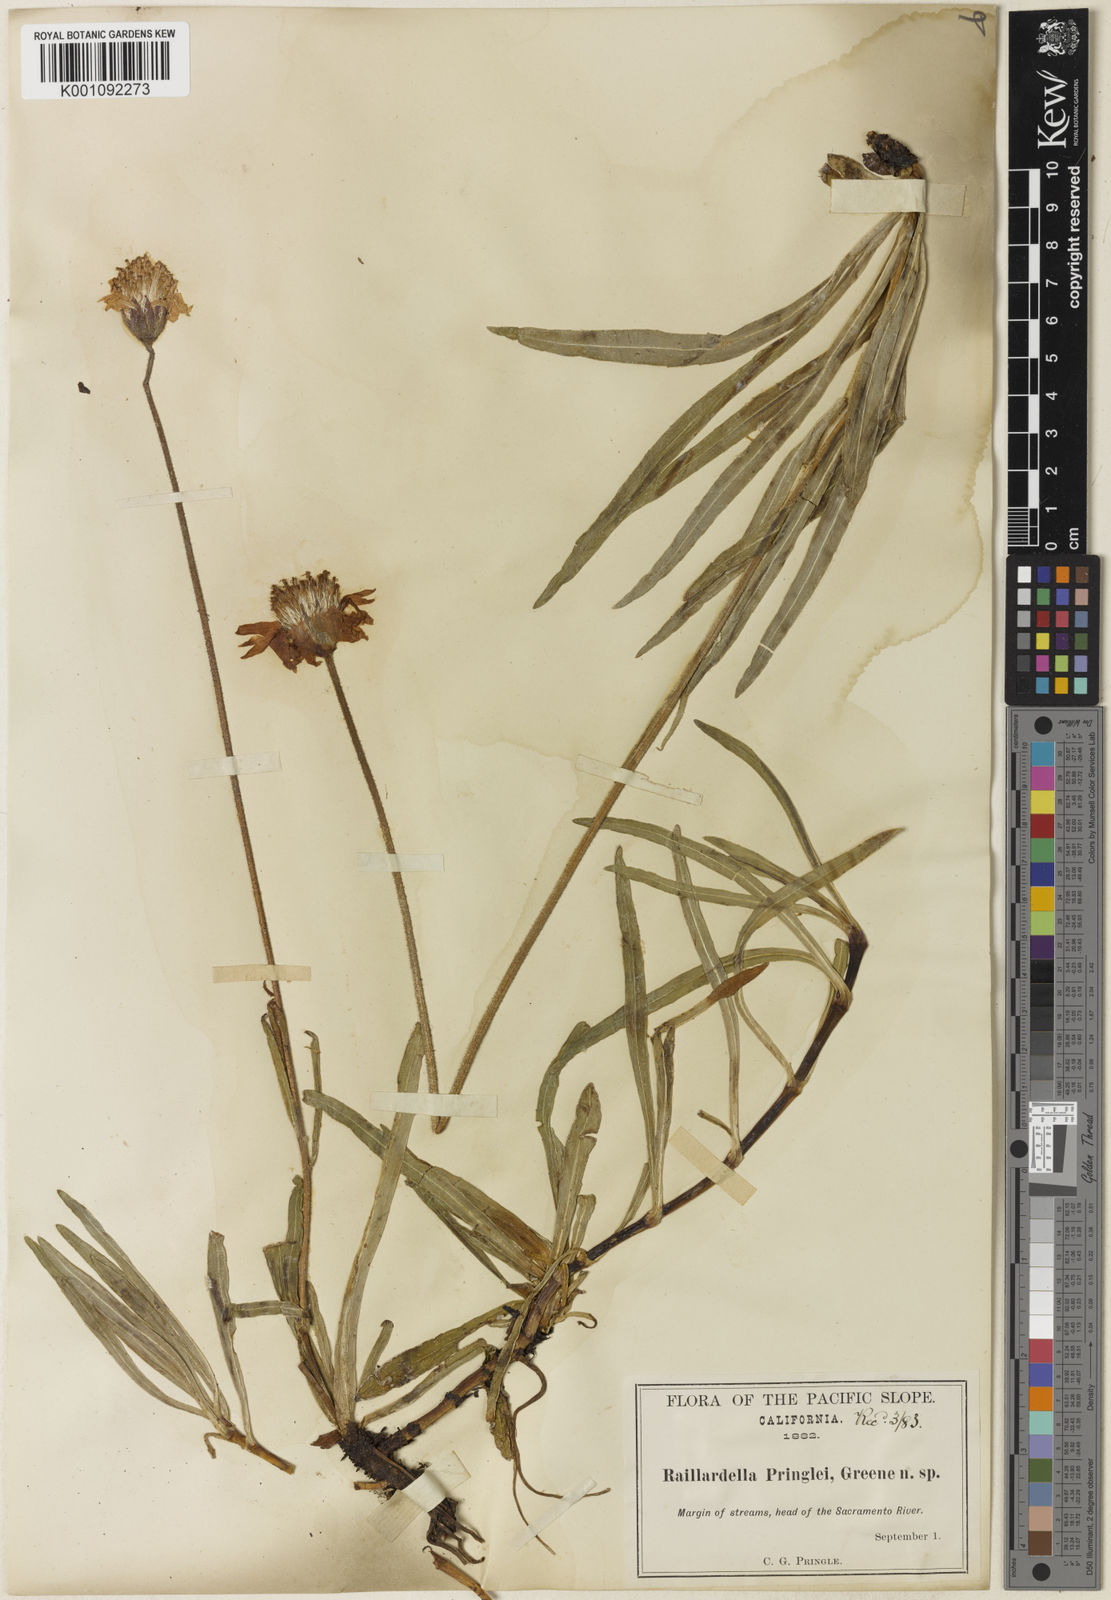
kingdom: Plantae
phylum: Tracheophyta
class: Magnoliopsida
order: Asterales
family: Asteraceae
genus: Raillardella
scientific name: Raillardella pringlei
